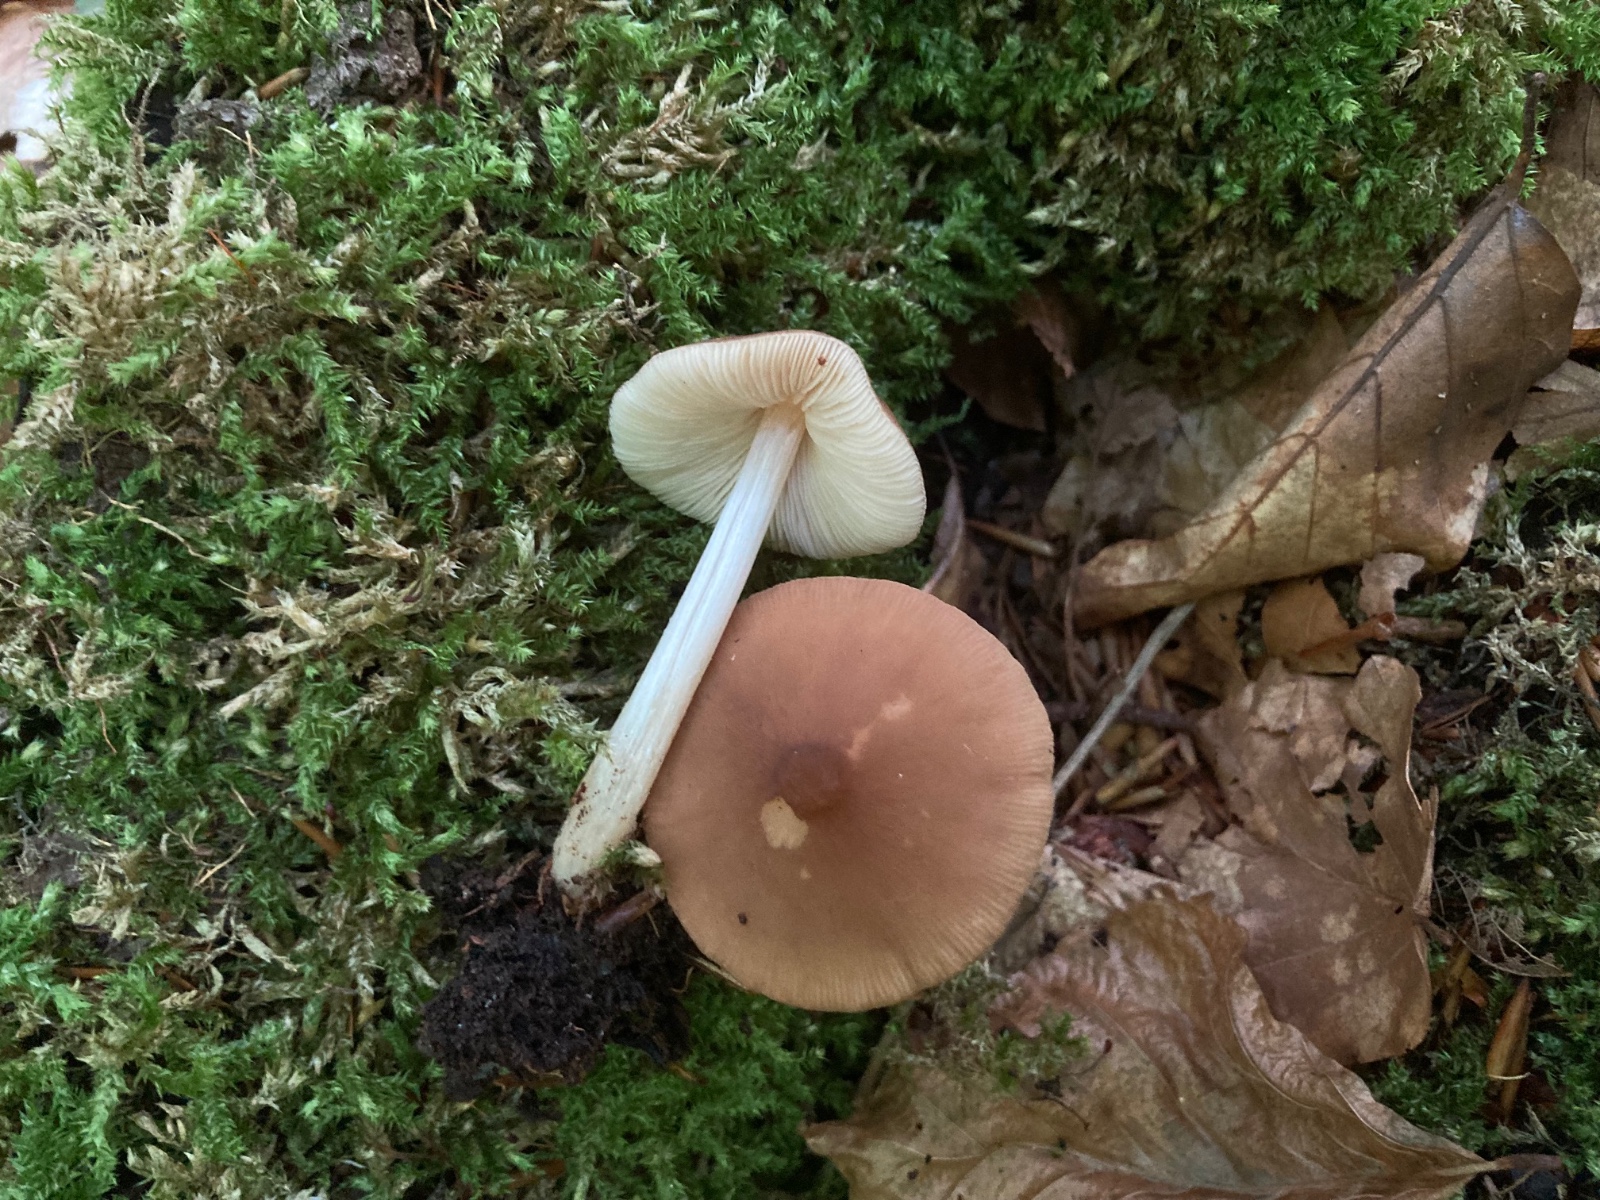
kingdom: Fungi
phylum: Basidiomycota
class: Agaricomycetes
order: Agaricales
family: Pluteaceae
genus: Pluteus
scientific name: Pluteus phlebophorus
